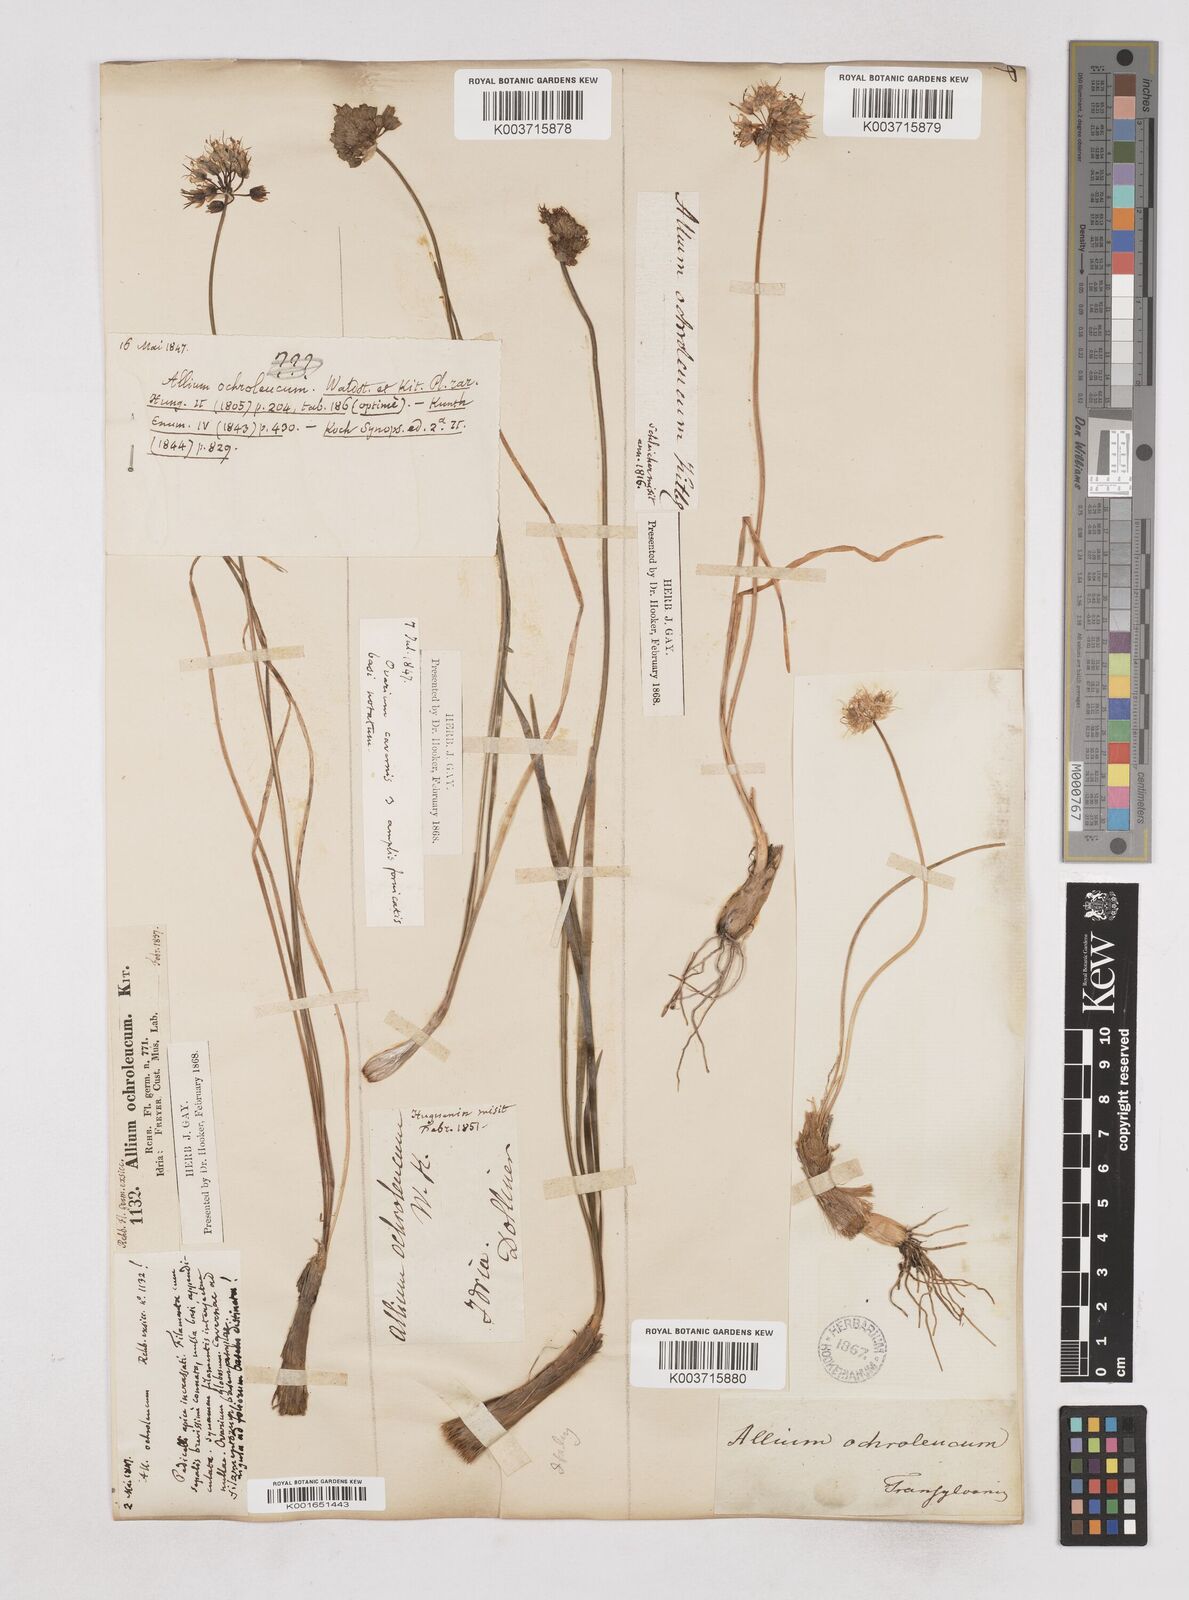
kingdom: Plantae
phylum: Tracheophyta
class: Liliopsida
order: Asparagales
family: Amaryllidaceae
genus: Allium
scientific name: Allium ericetorum
